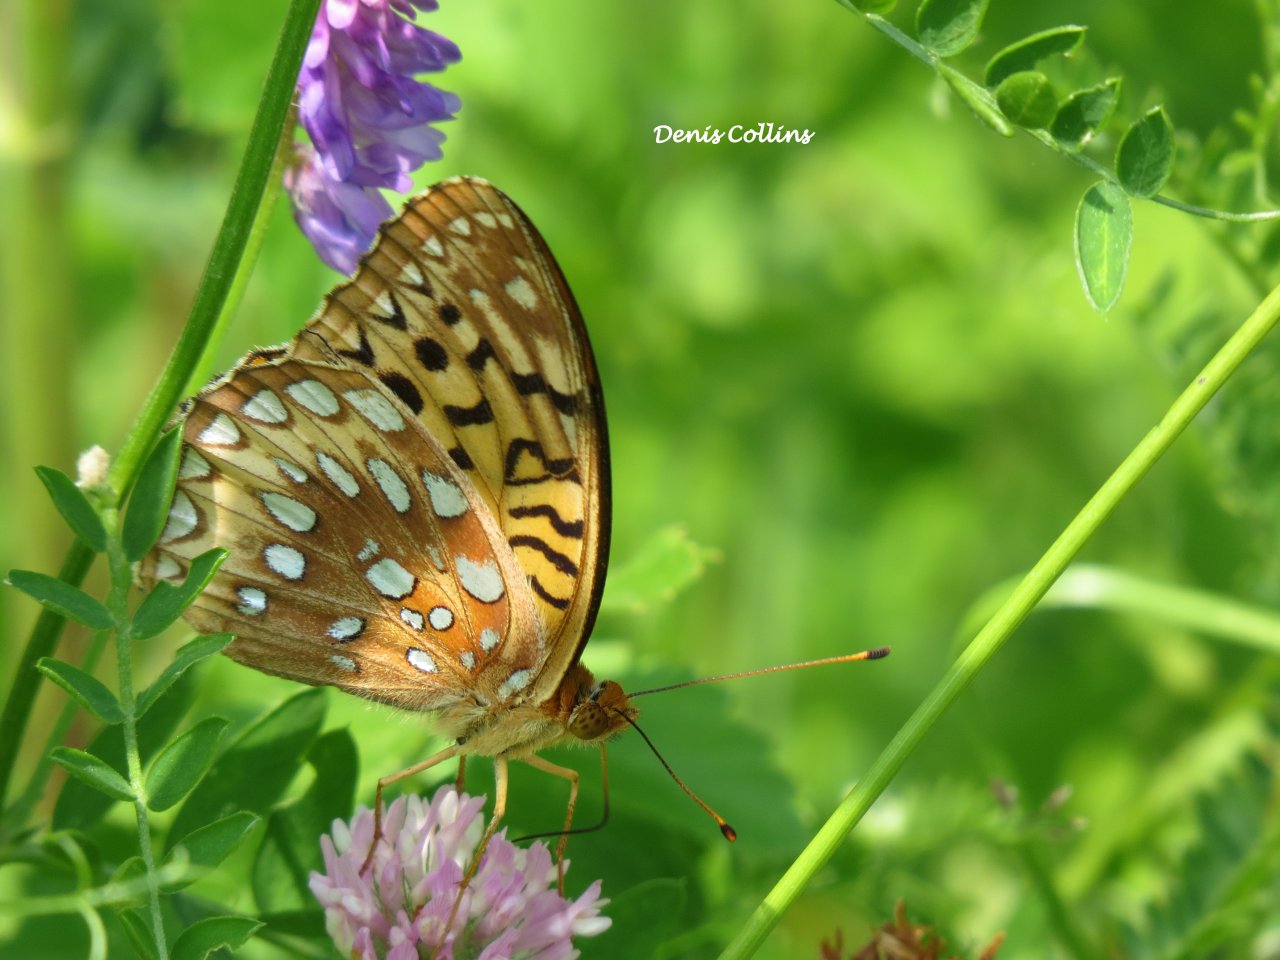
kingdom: Animalia
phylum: Arthropoda
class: Insecta
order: Lepidoptera
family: Nymphalidae
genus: Speyeria
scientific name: Speyeria cybele
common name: Great Spangled Fritillary
